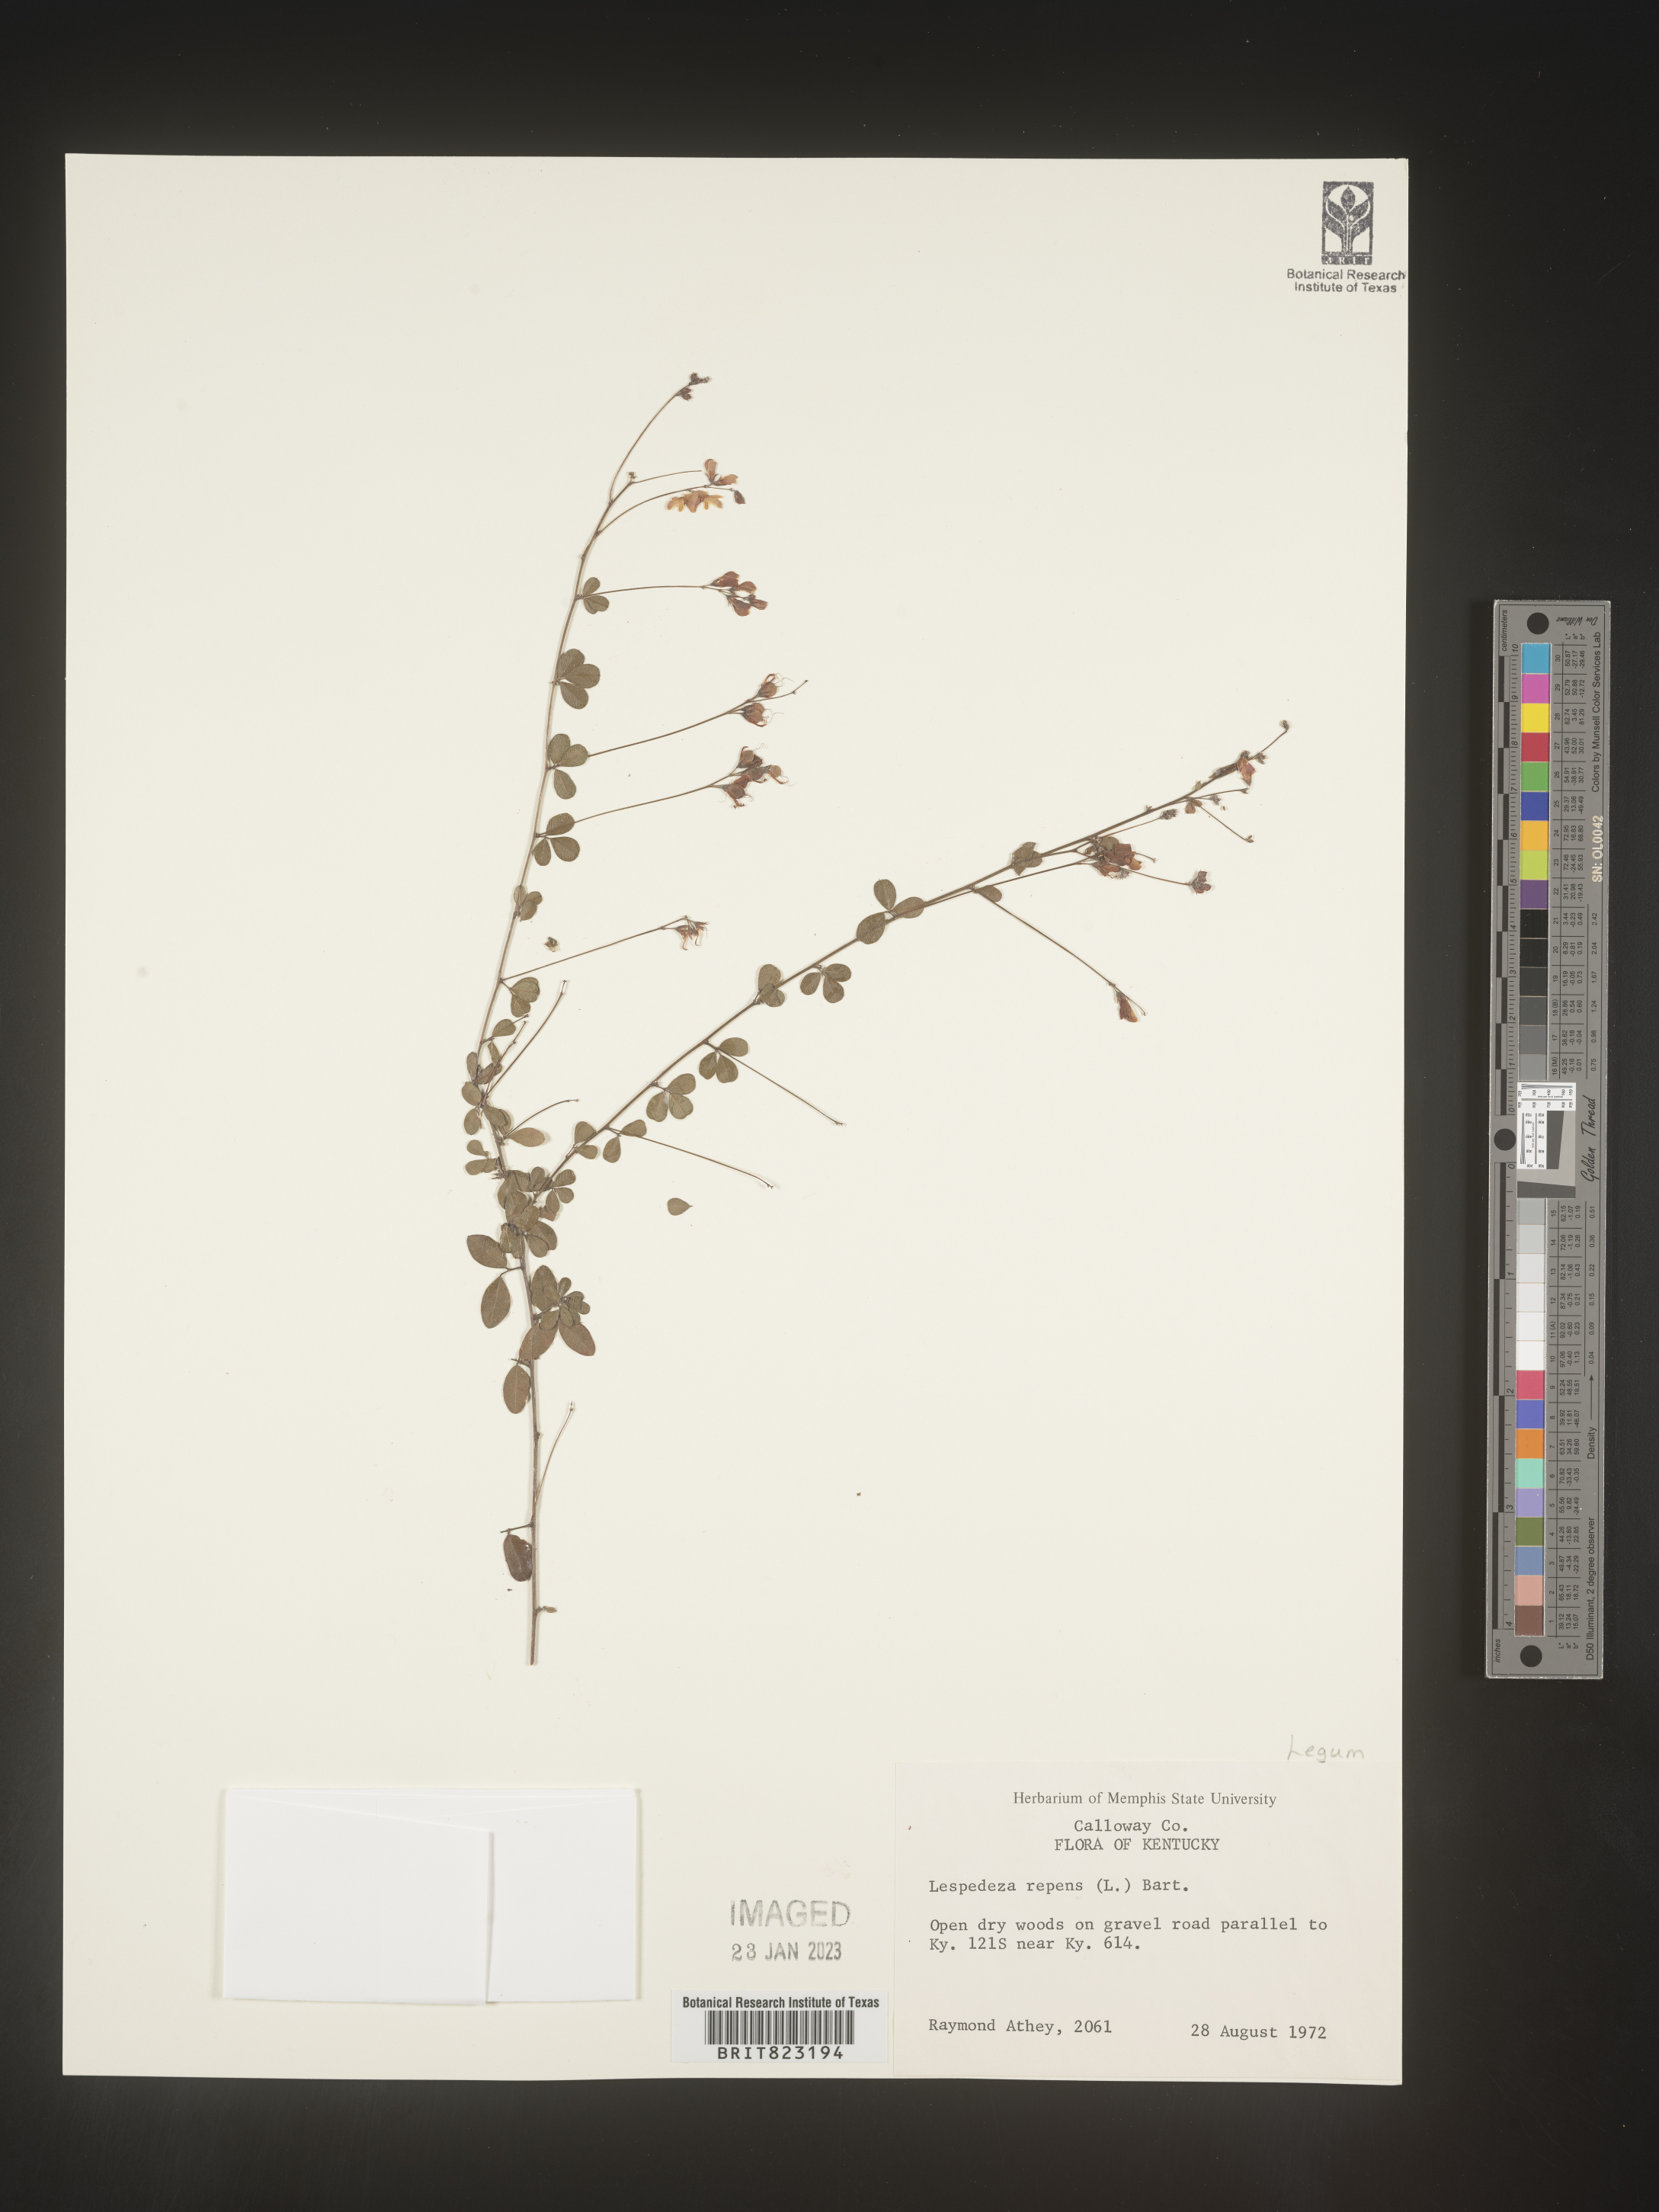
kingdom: Plantae
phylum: Tracheophyta
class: Magnoliopsida
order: Fabales
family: Fabaceae
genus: Lespedeza
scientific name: Lespedeza repens
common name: Creeping bush-clover
